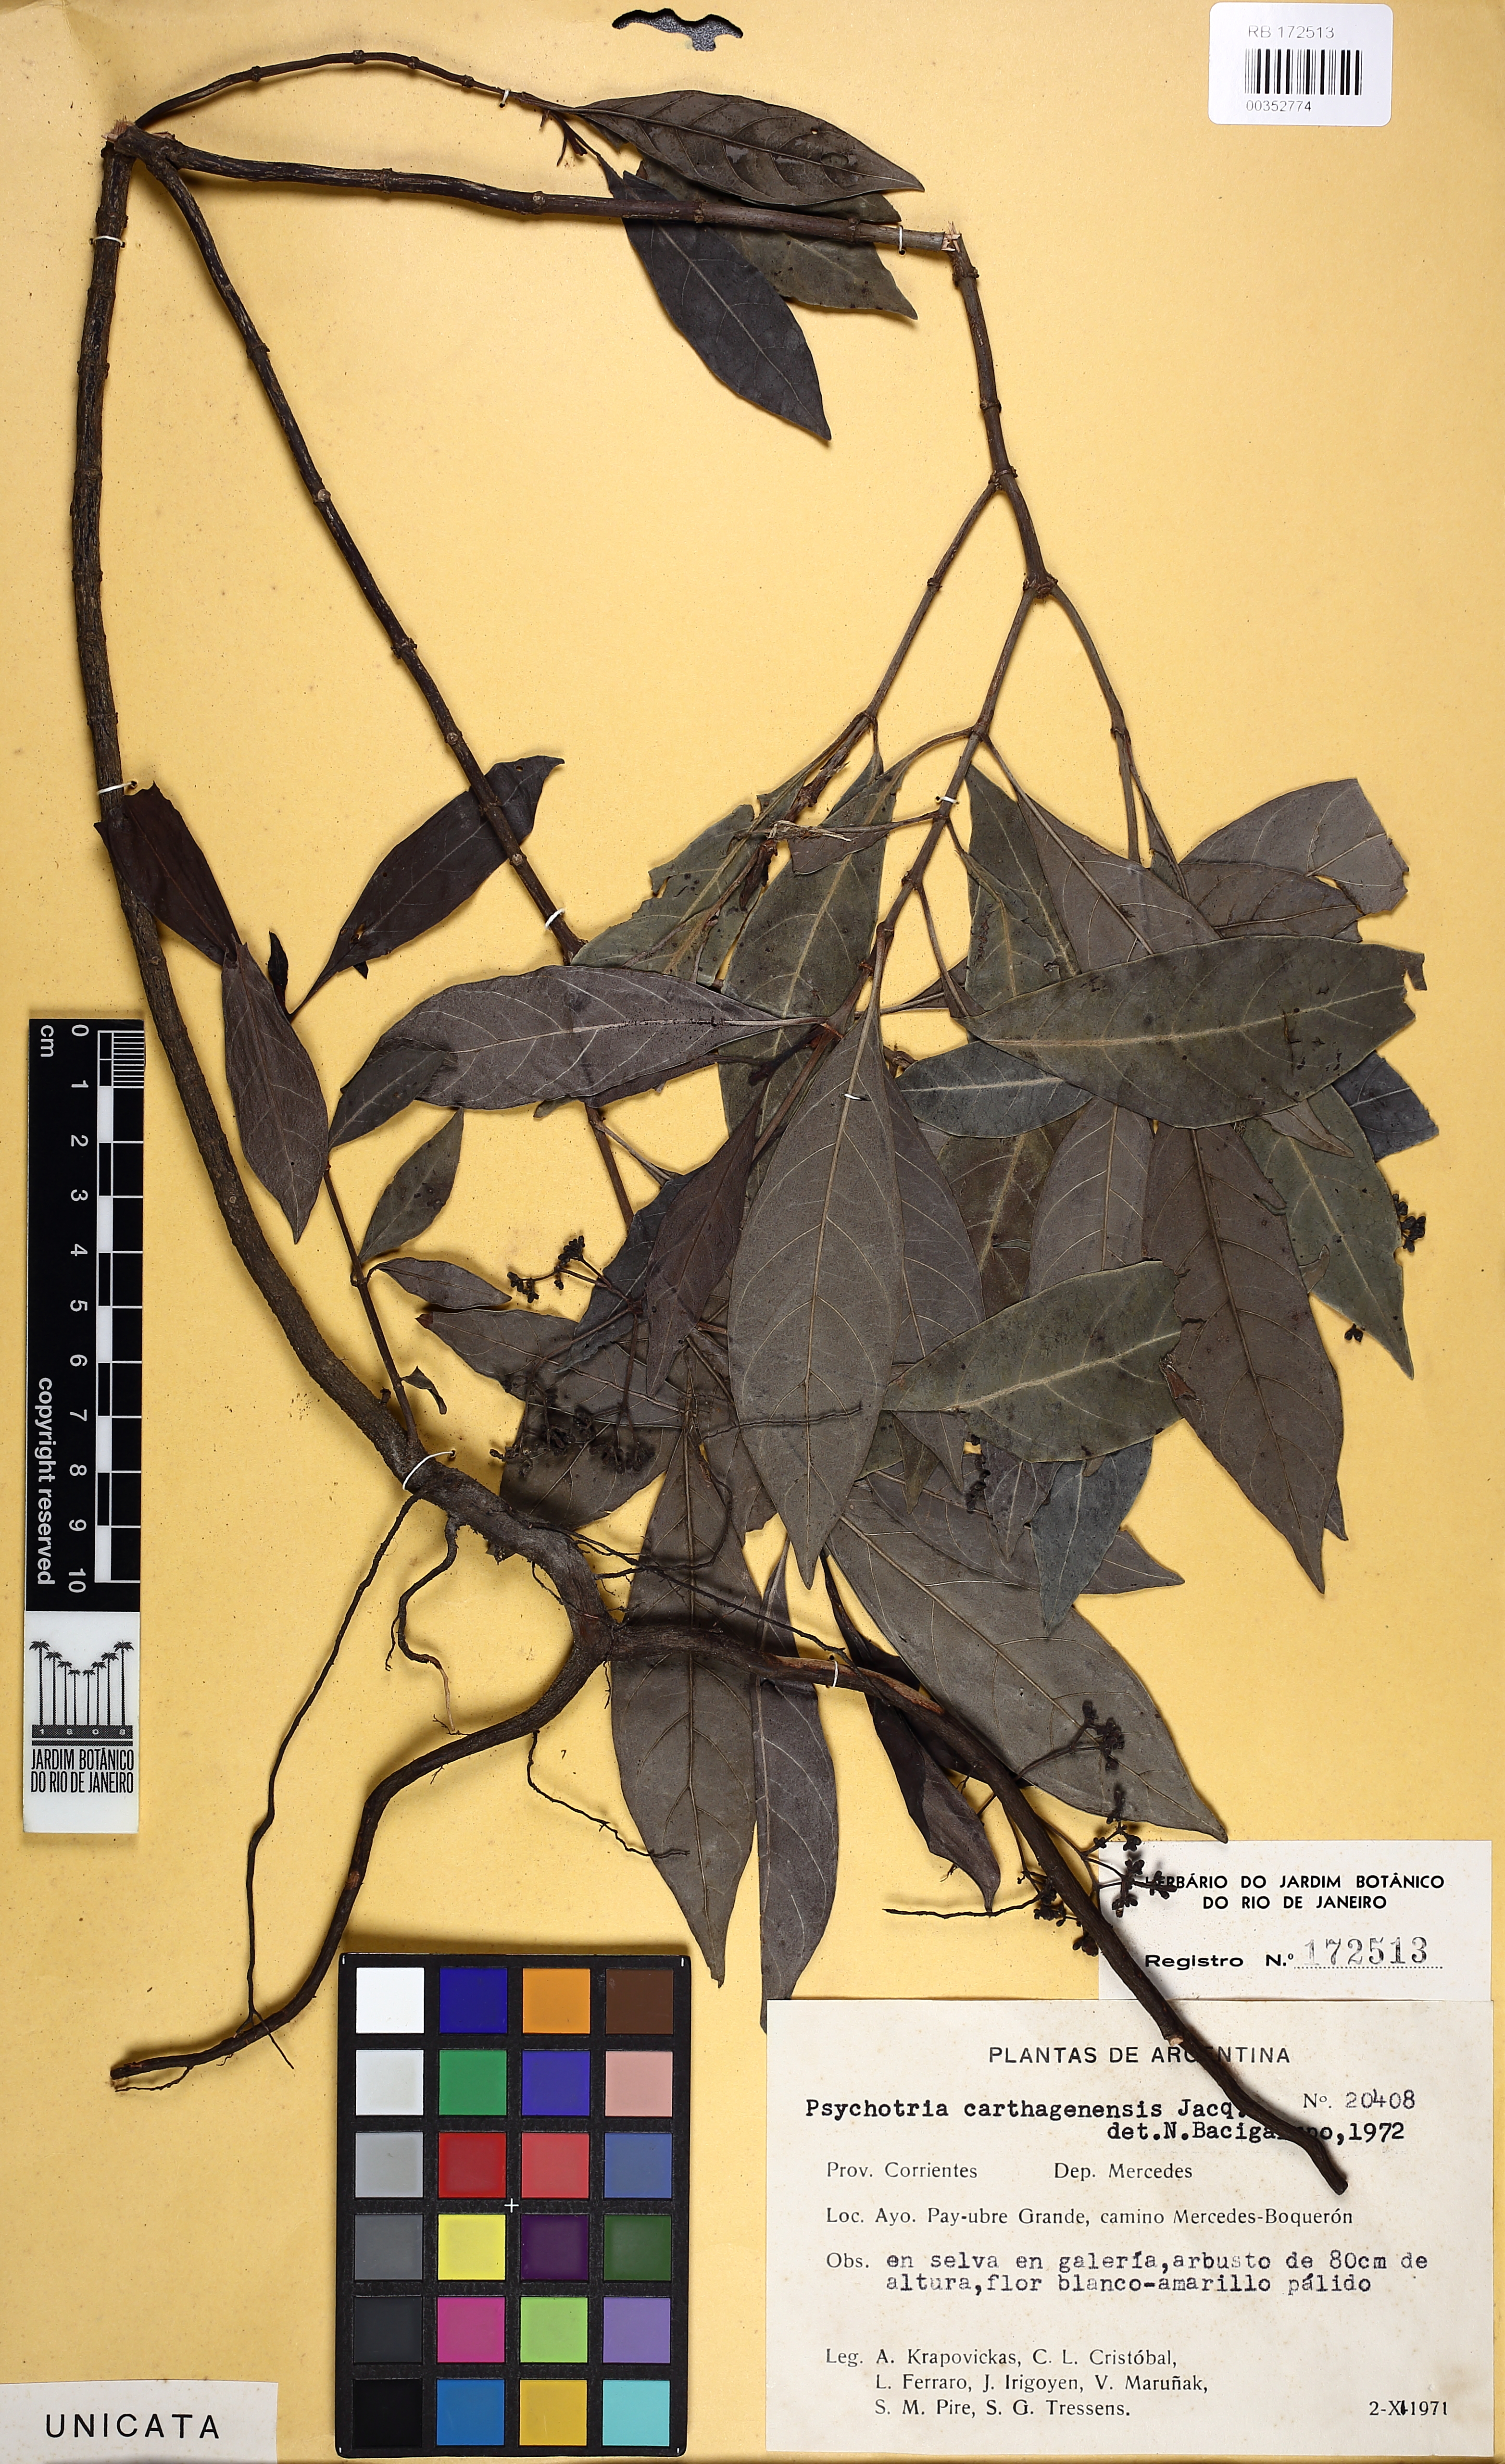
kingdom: Plantae
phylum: Tracheophyta
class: Magnoliopsida
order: Gentianales
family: Rubiaceae
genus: Psychotria
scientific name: Psychotria carthagenensis
